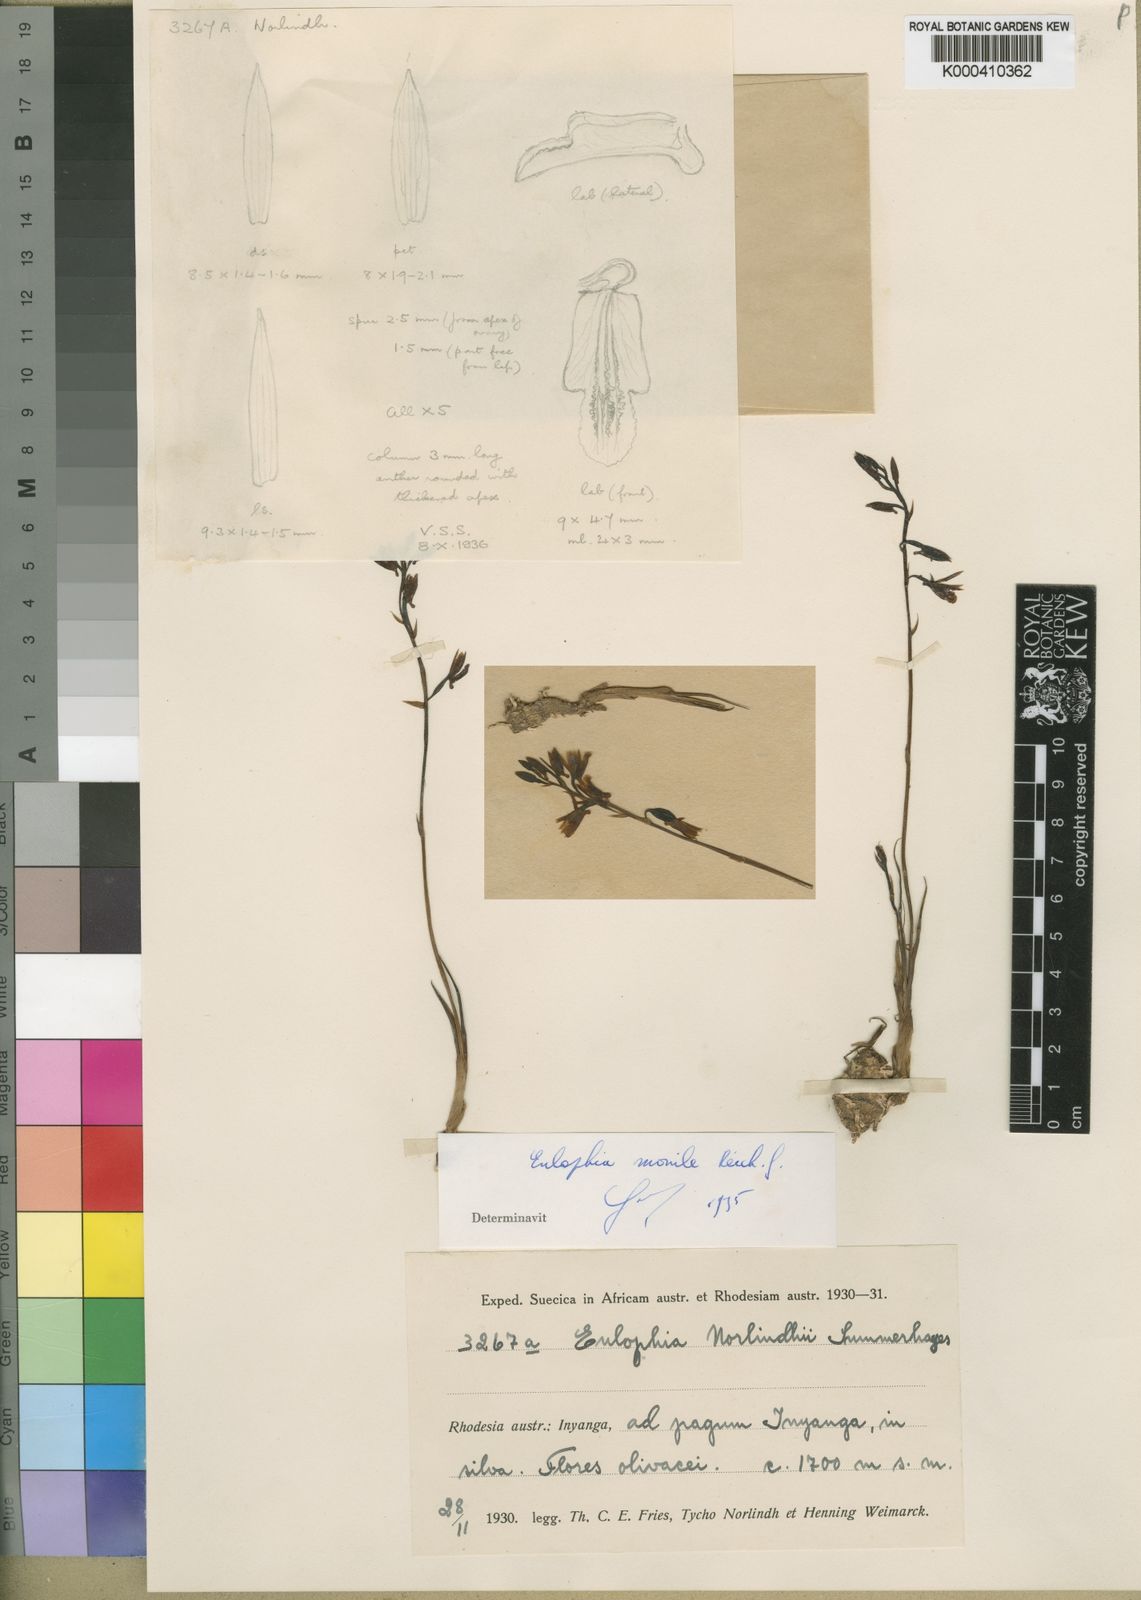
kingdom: Plantae
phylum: Tracheophyta
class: Liliopsida
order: Asparagales
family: Orchidaceae
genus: Eulophia
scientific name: Eulophia norlindhii
